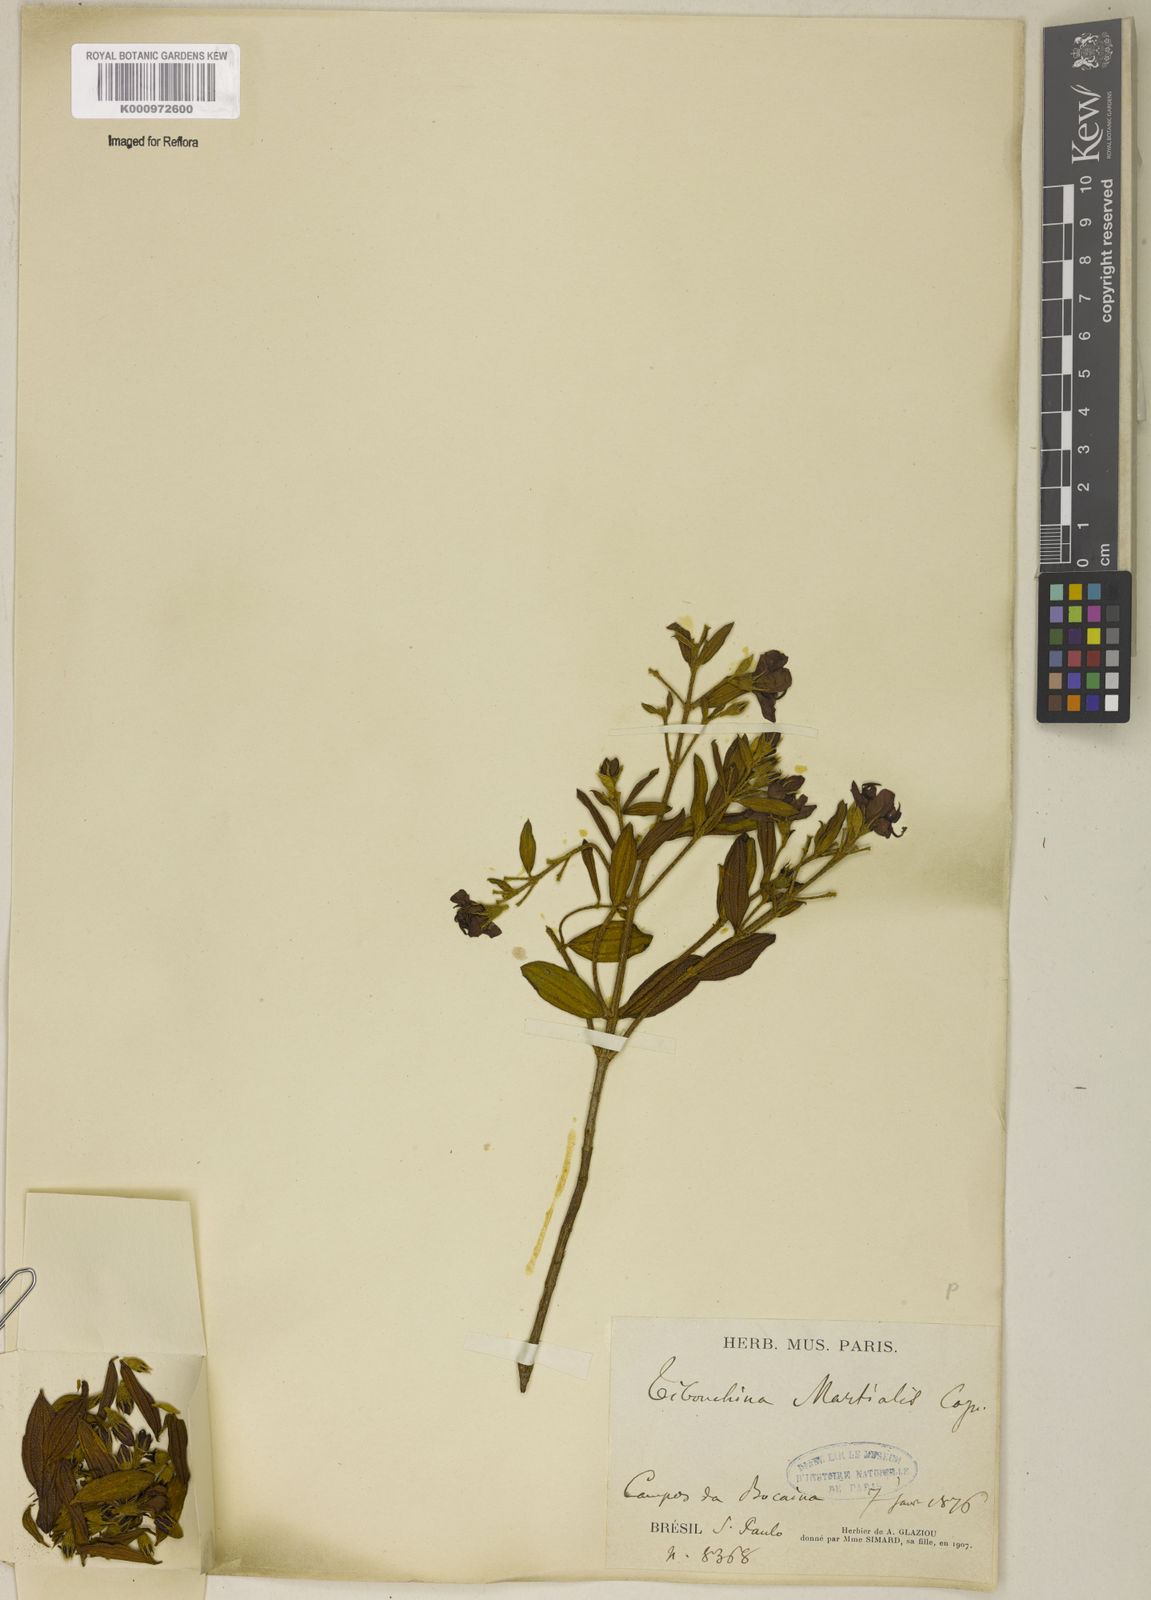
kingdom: Plantae
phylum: Tracheophyta
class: Magnoliopsida
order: Myrtales
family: Melastomataceae
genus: Pleroma
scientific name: Pleroma martiale
